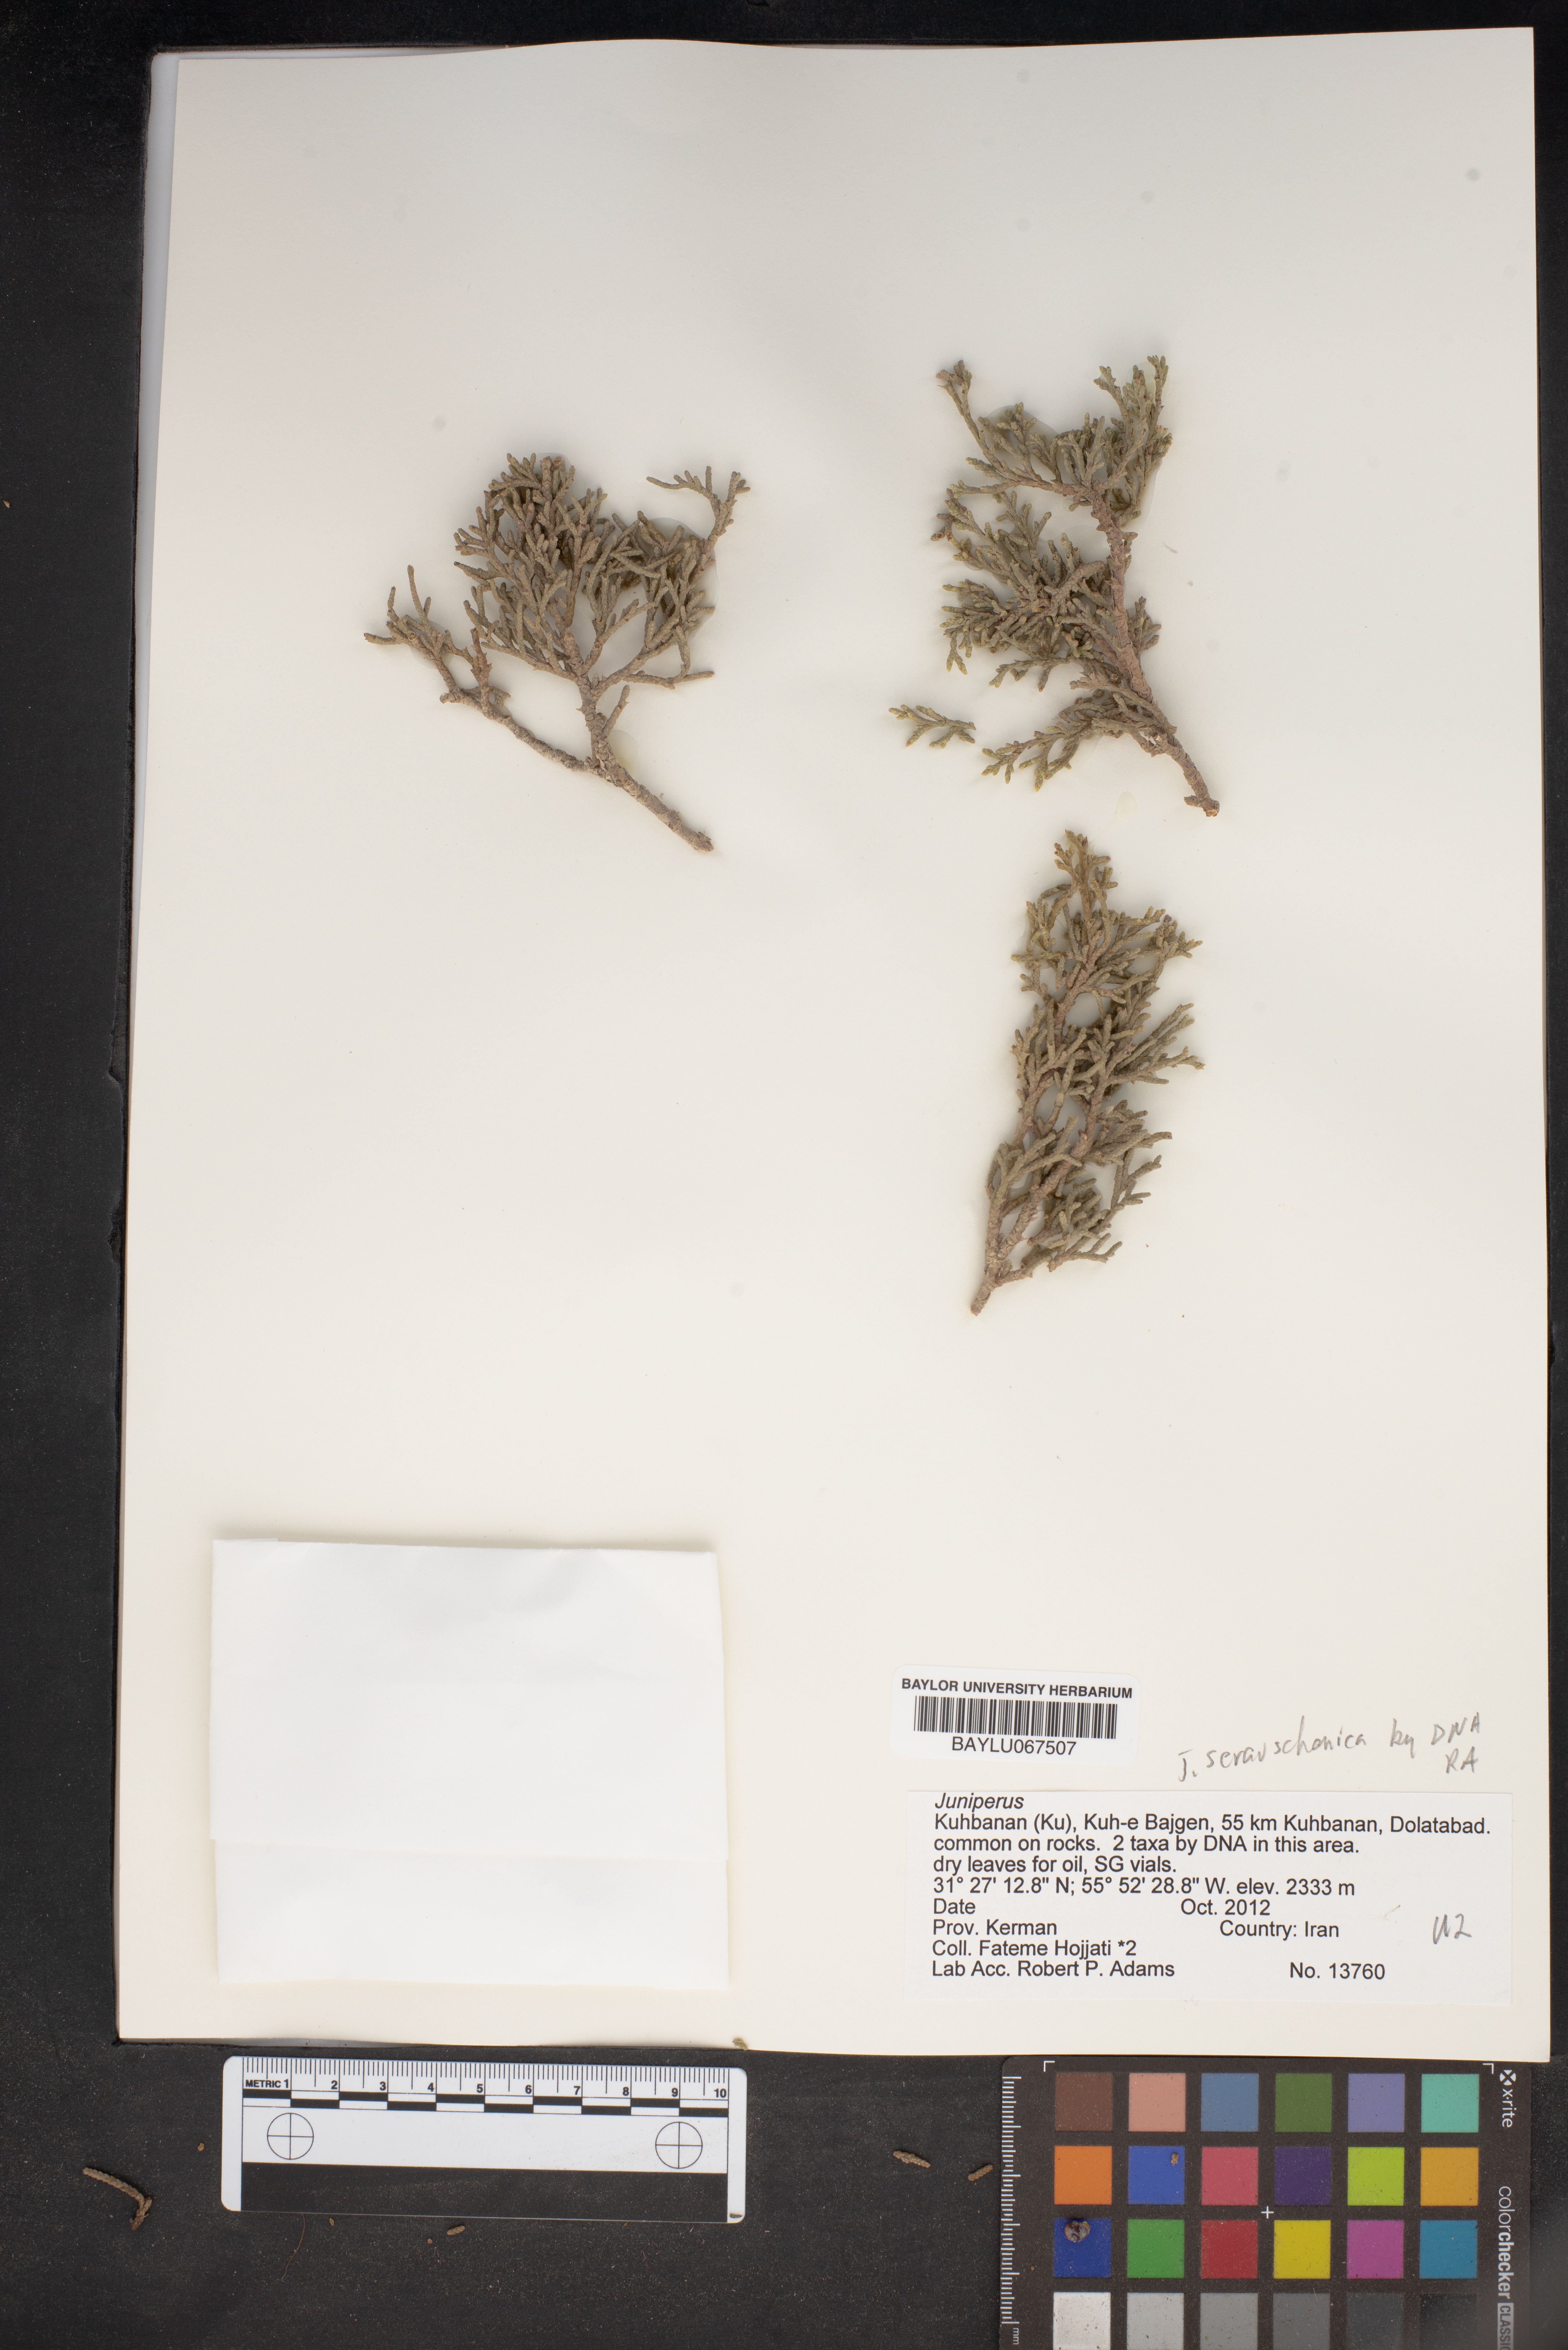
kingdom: Plantae
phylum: Tracheophyta
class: Pinopsida
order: Pinales
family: Cupressaceae
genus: Juniperus
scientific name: Juniperus
